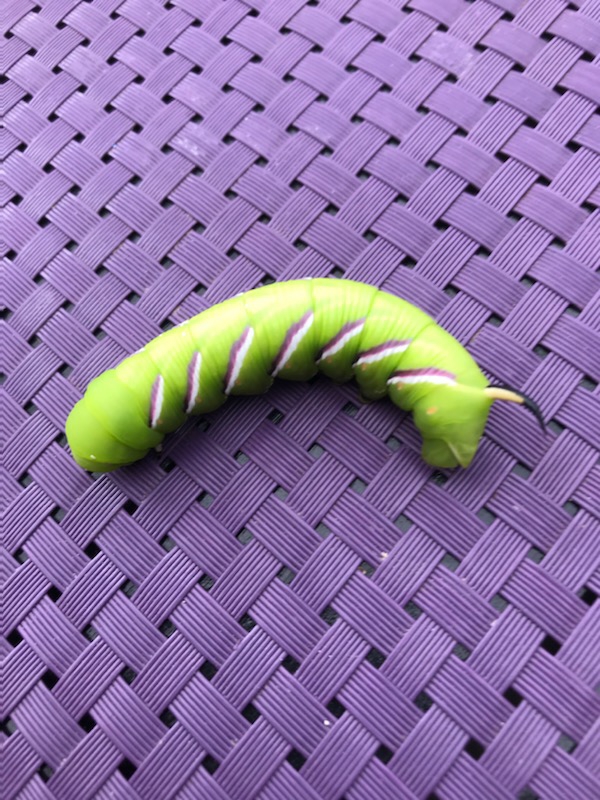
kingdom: Animalia
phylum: Arthropoda
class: Insecta
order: Lepidoptera
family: Sphingidae
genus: Sphinx
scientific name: Sphinx ligustri
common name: Ligustersværmer
